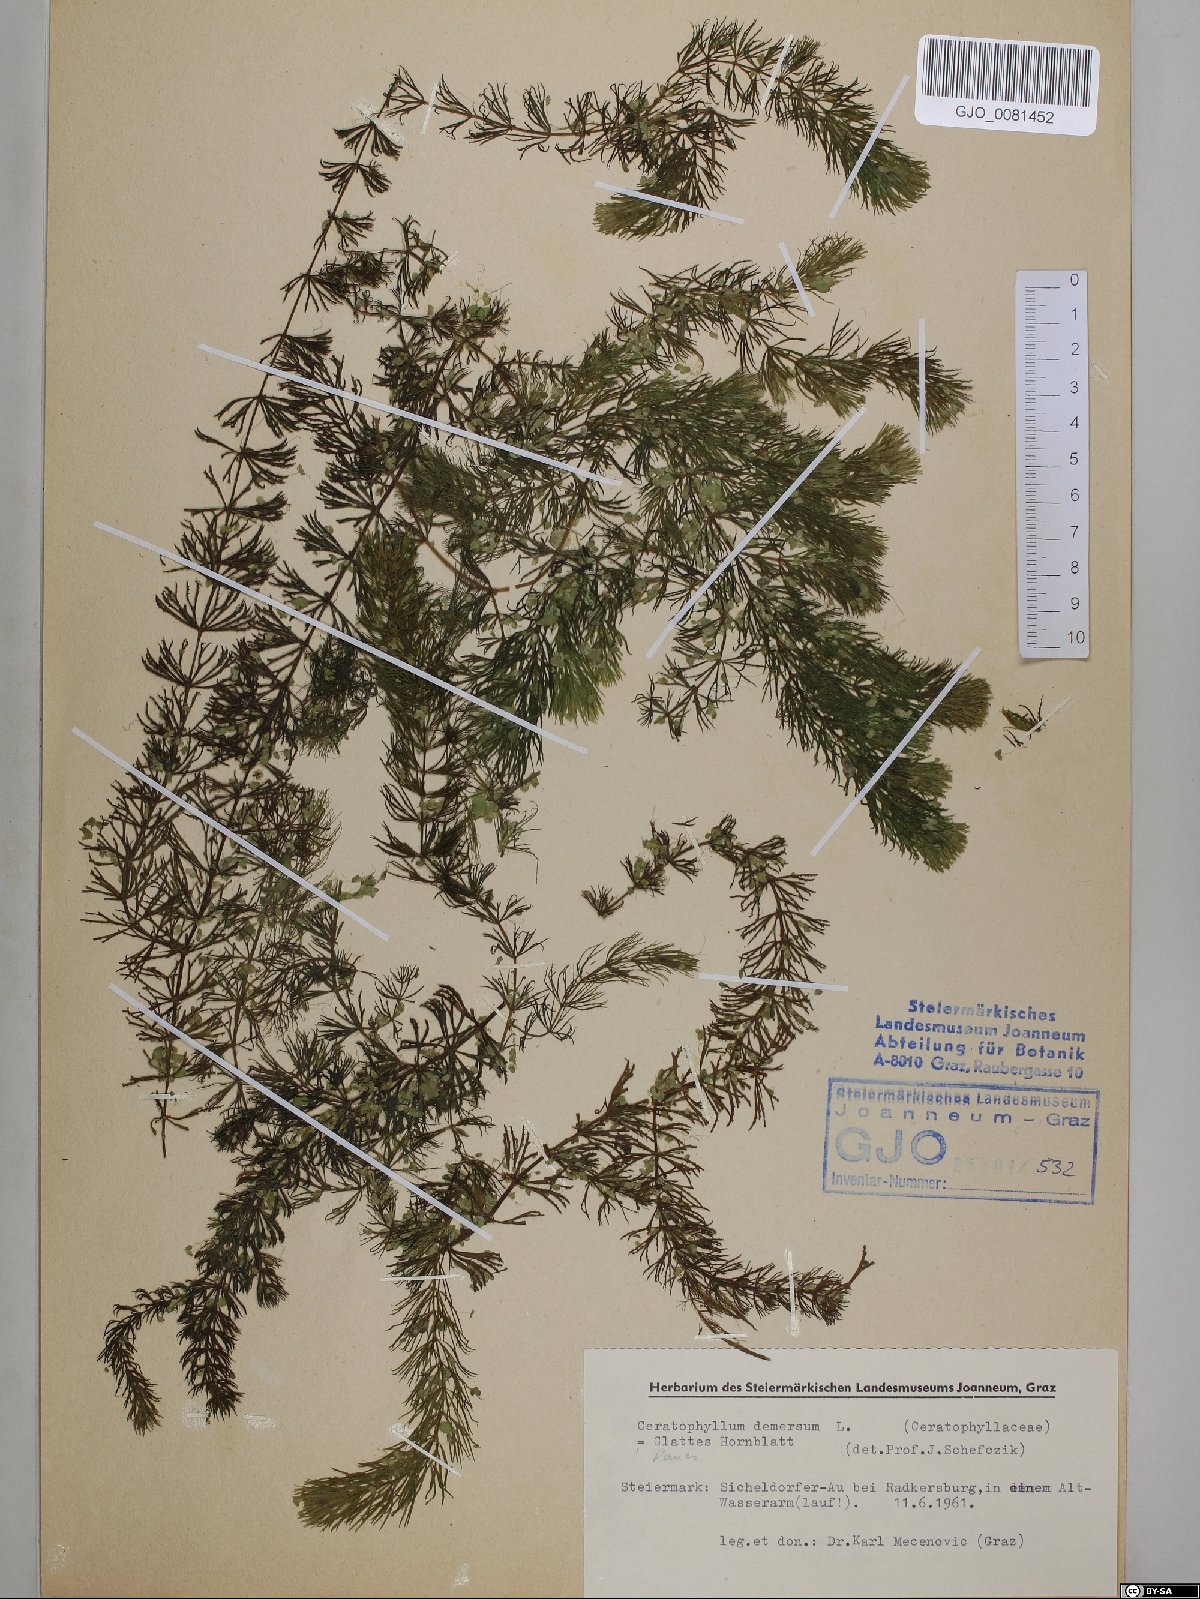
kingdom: Plantae
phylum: Tracheophyta
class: Magnoliopsida
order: Ceratophyllales
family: Ceratophyllaceae
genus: Ceratophyllum
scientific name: Ceratophyllum demersum
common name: Rigid hornwort
